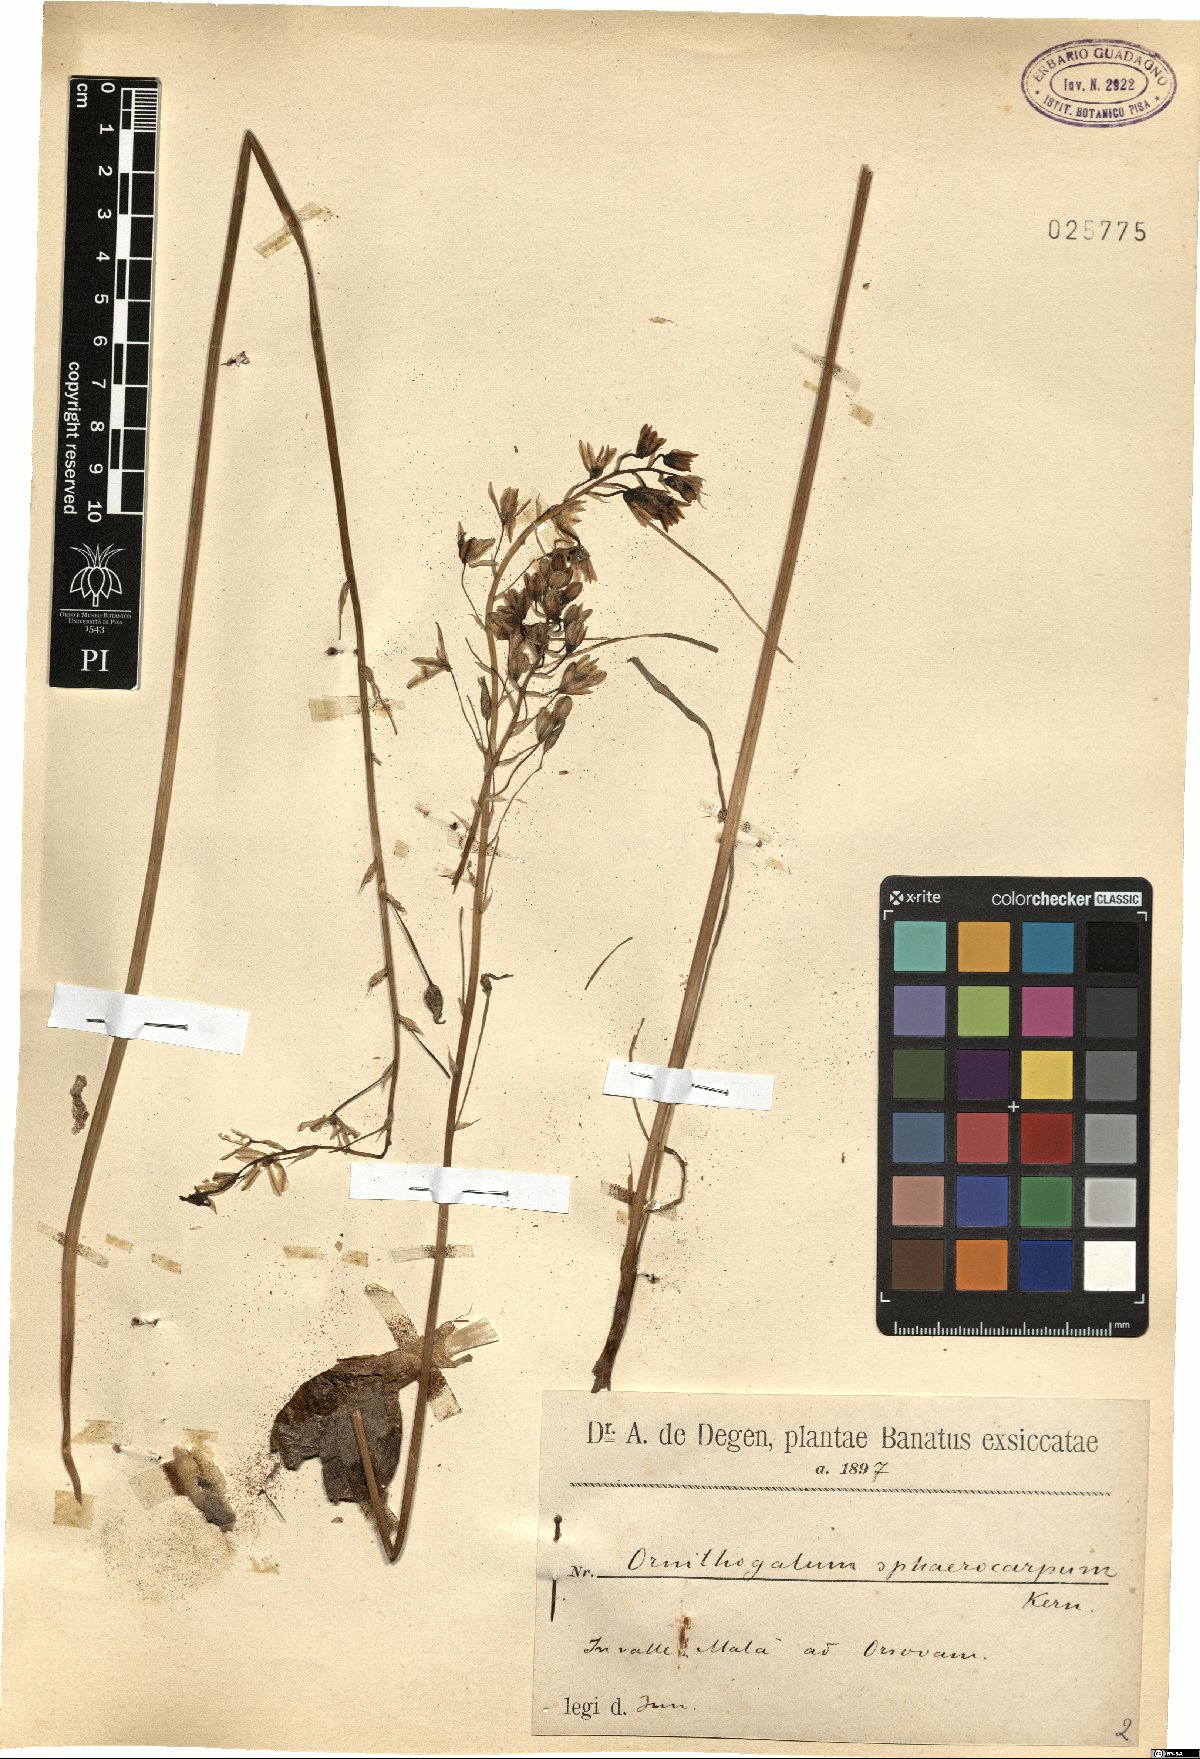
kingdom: Plantae
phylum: Tracheophyta
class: Liliopsida
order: Asparagales
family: Asparagaceae
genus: Ornithogalum
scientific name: Ornithogalum sphaerocarpum
